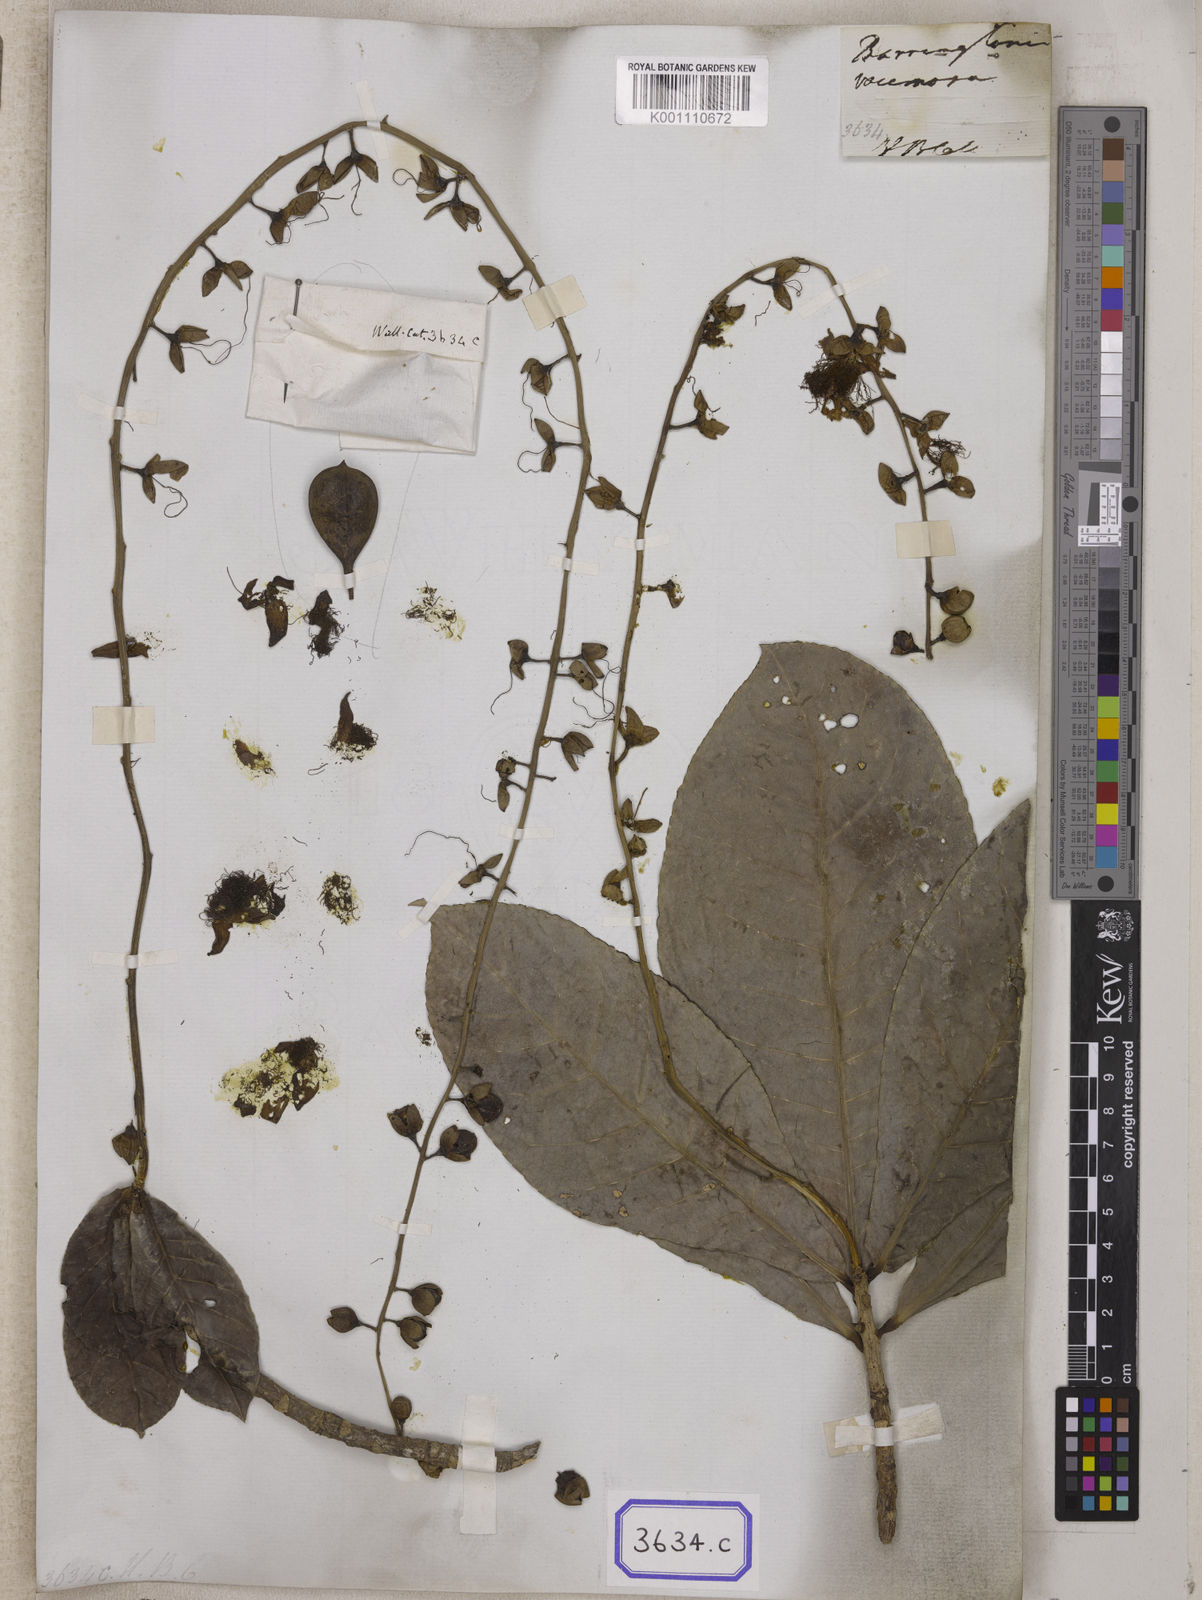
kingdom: Plantae
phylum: Tracheophyta
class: Magnoliopsida
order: Ericales
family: Lecythidaceae
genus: Barringtonia
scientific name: Barringtonia
